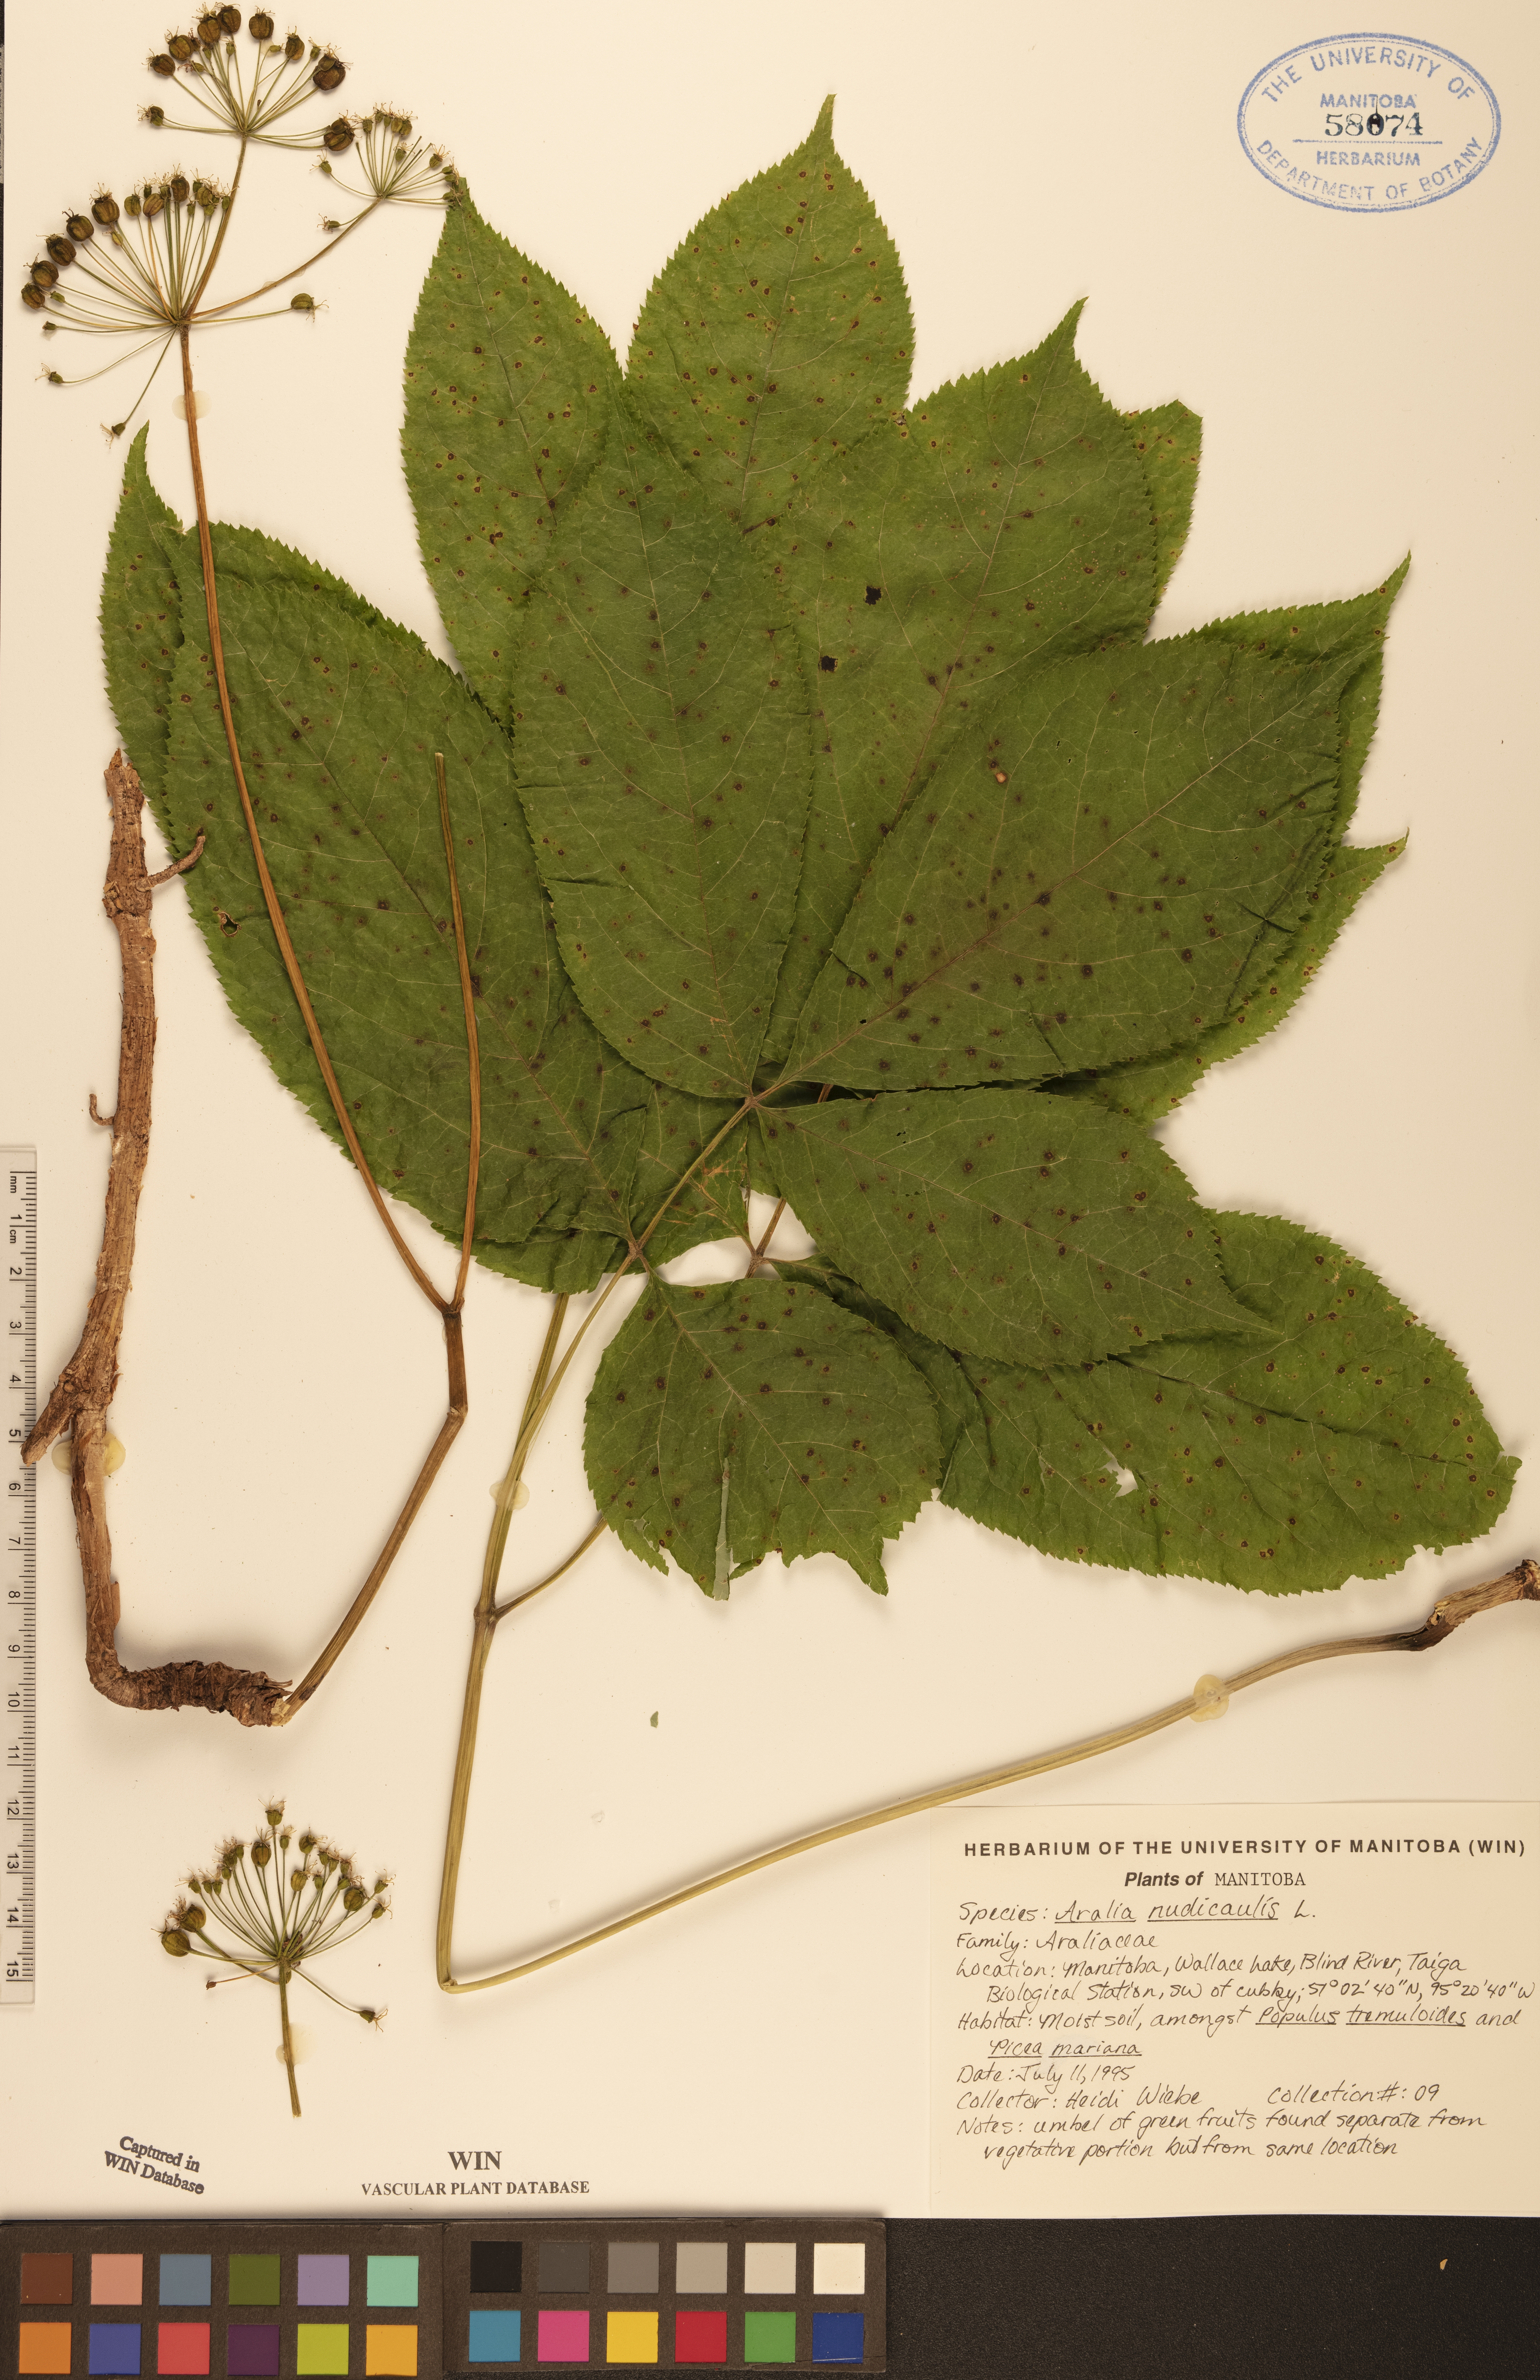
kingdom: Plantae
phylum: Tracheophyta
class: Magnoliopsida
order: Apiales
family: Araliaceae
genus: Aralia
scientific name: Aralia nudicaulis
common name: Wild sarsaparilla
